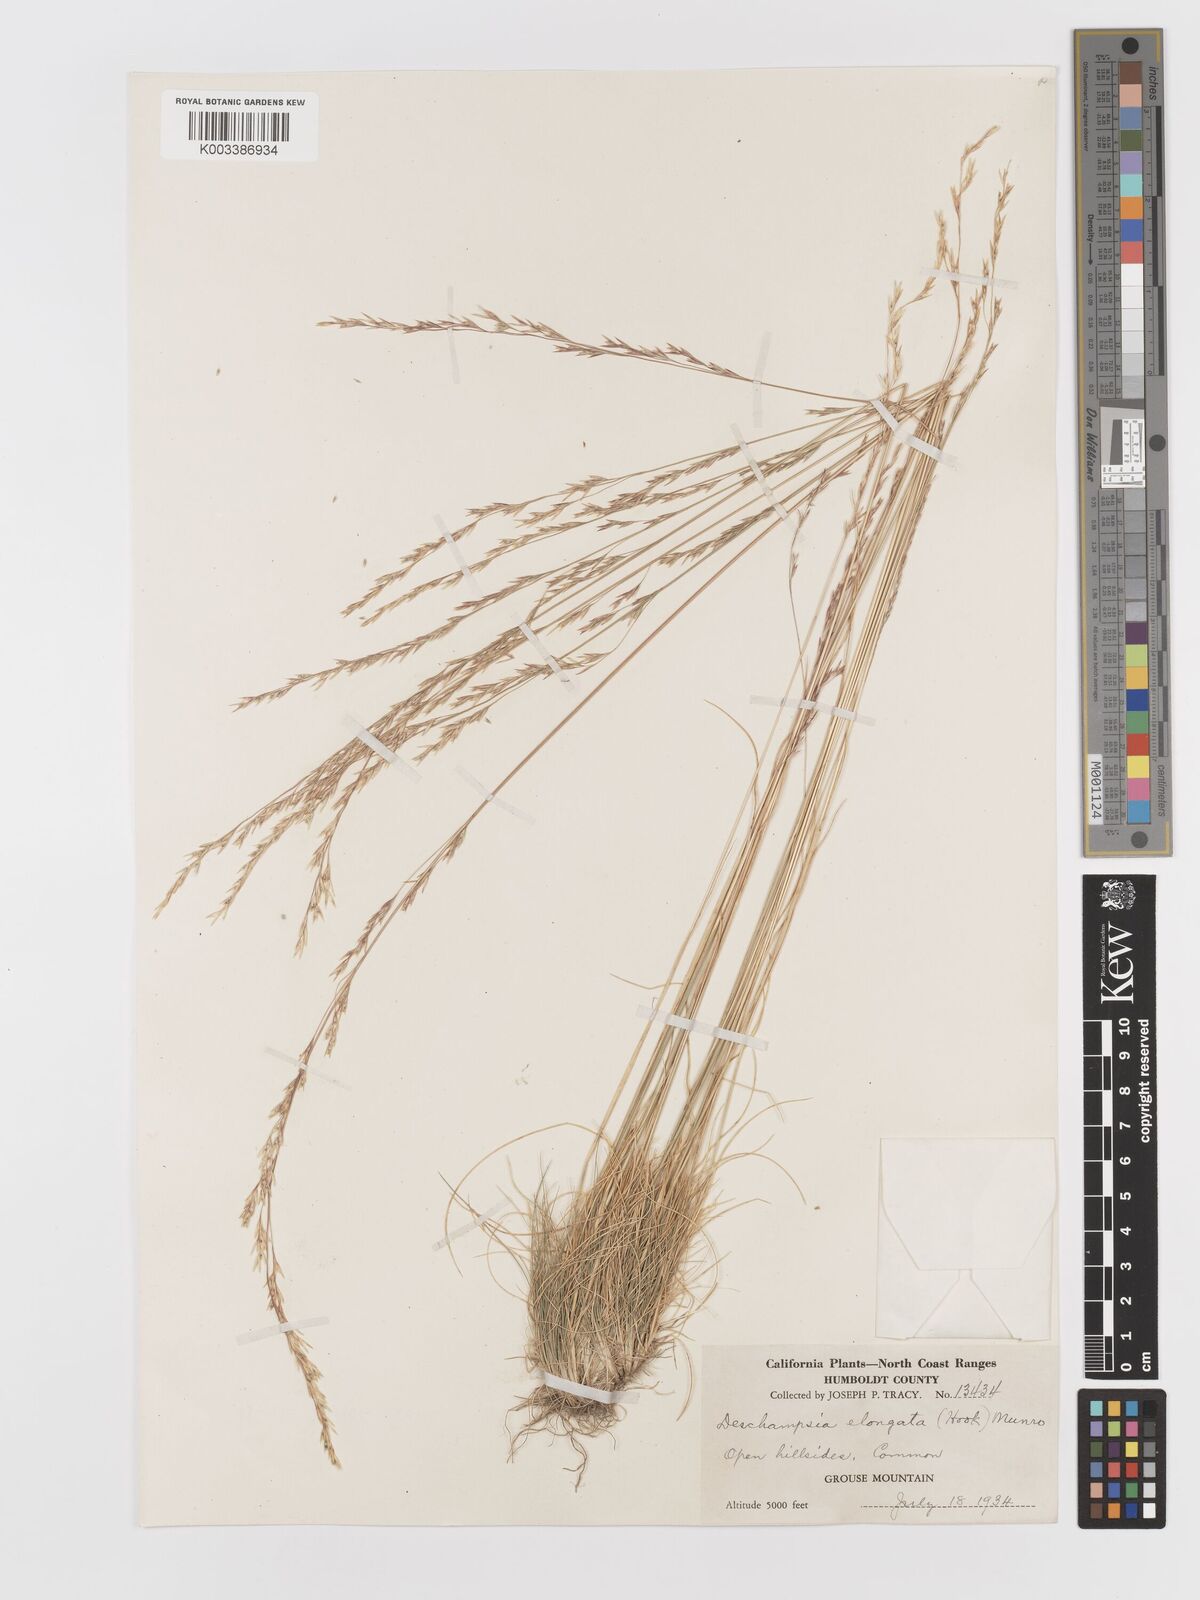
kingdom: Plantae
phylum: Tracheophyta
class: Liliopsida
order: Poales
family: Poaceae
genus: Deschampsia
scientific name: Deschampsia elongata
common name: Slender hairgrass
